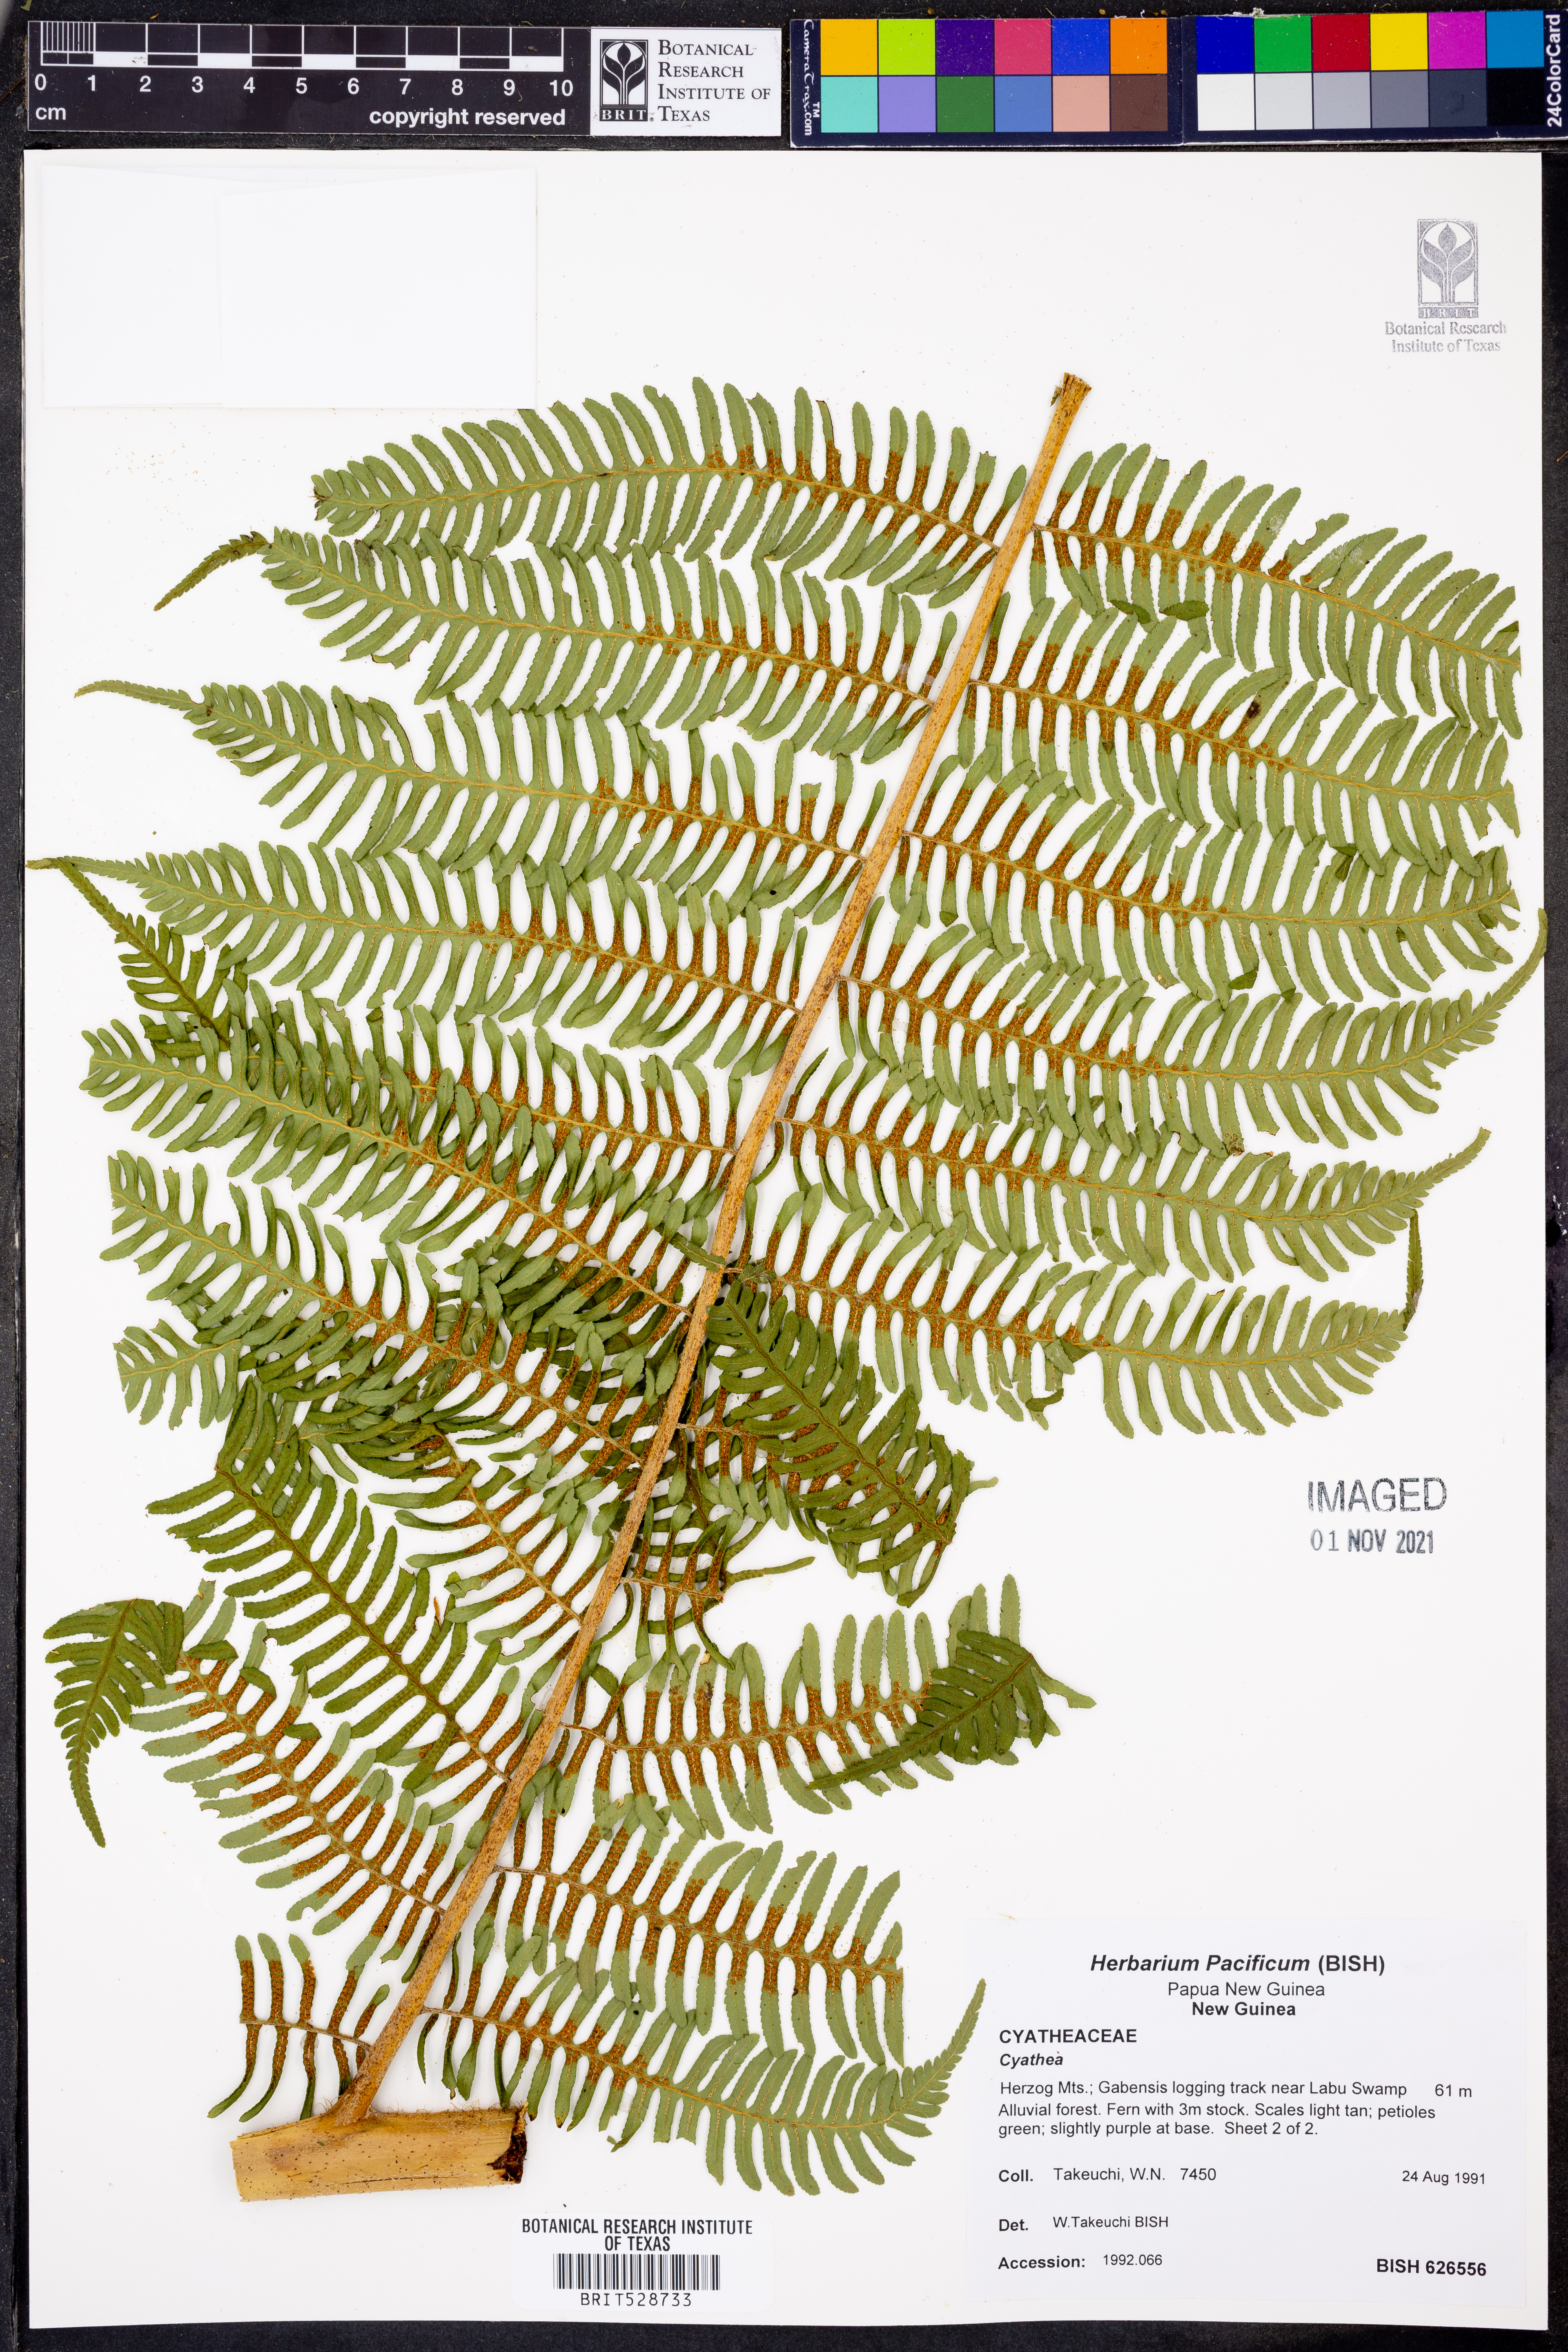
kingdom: Plantae
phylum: Tracheophyta
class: Polypodiopsida
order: Cyatheales
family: Cyatheaceae
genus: Cyathea
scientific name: Cyathea
